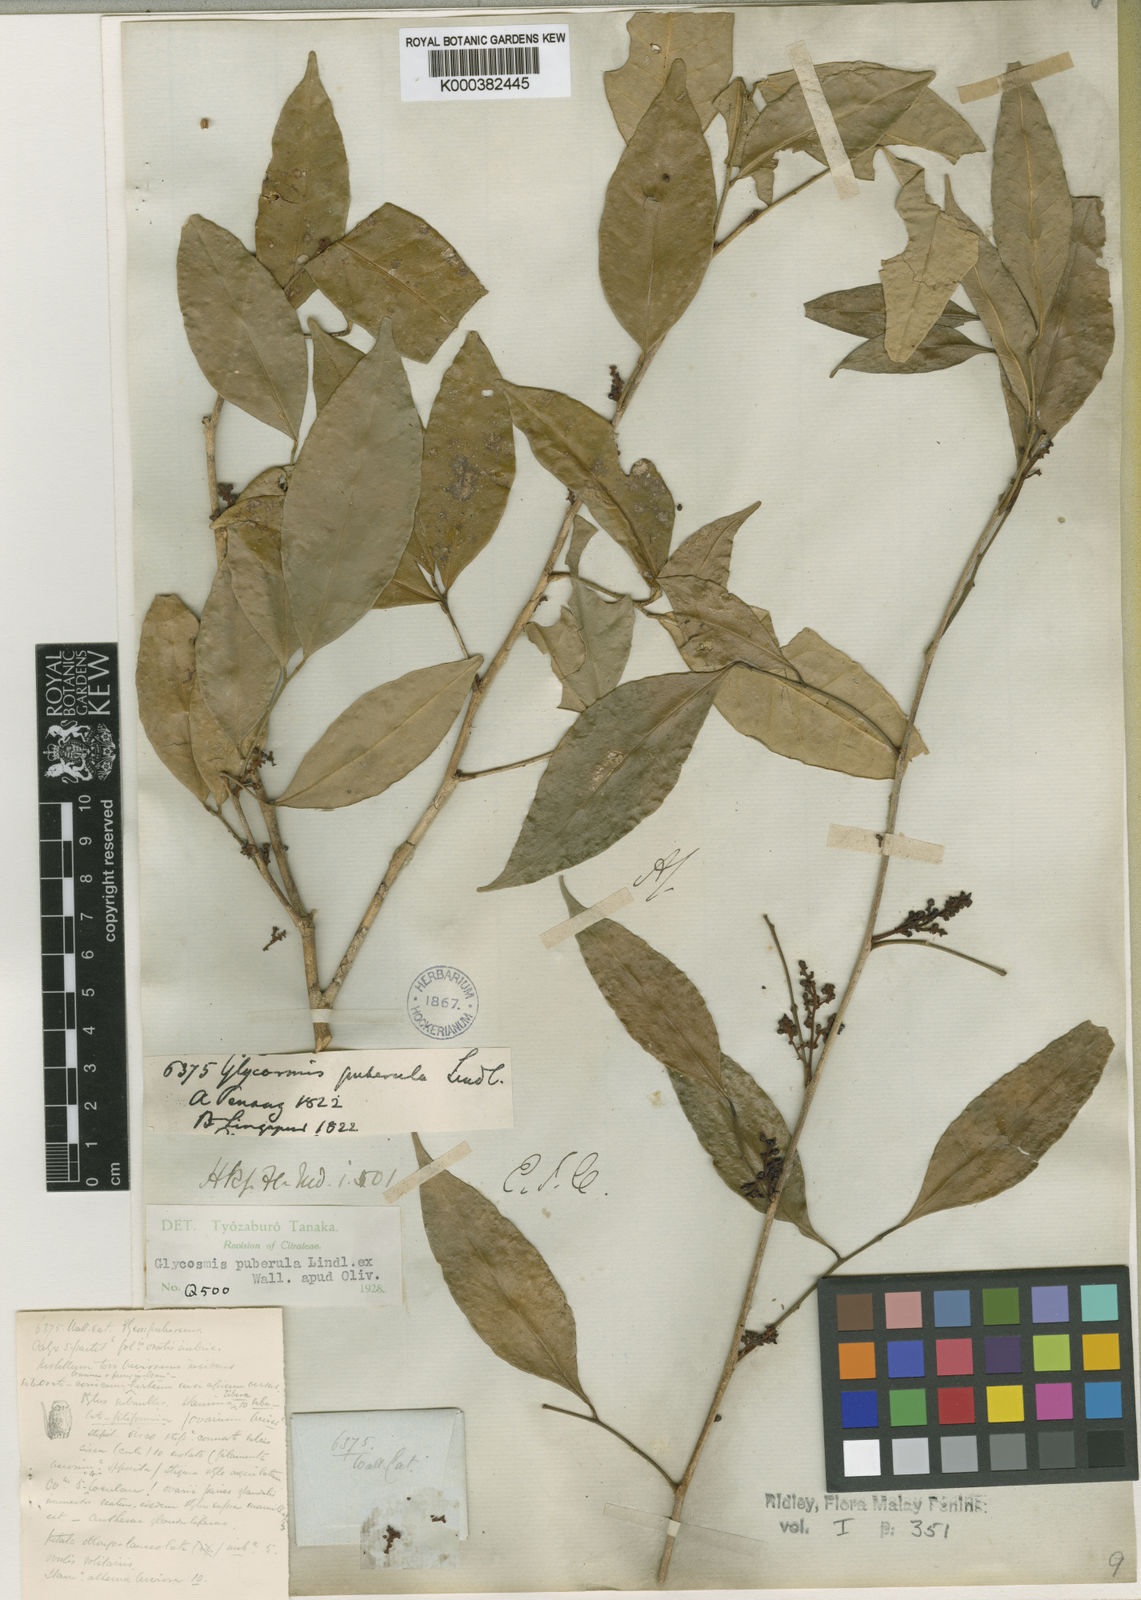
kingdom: Plantae
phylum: Tracheophyta
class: Magnoliopsida
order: Sapindales
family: Rutaceae
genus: Glycosmis
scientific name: Glycosmis
